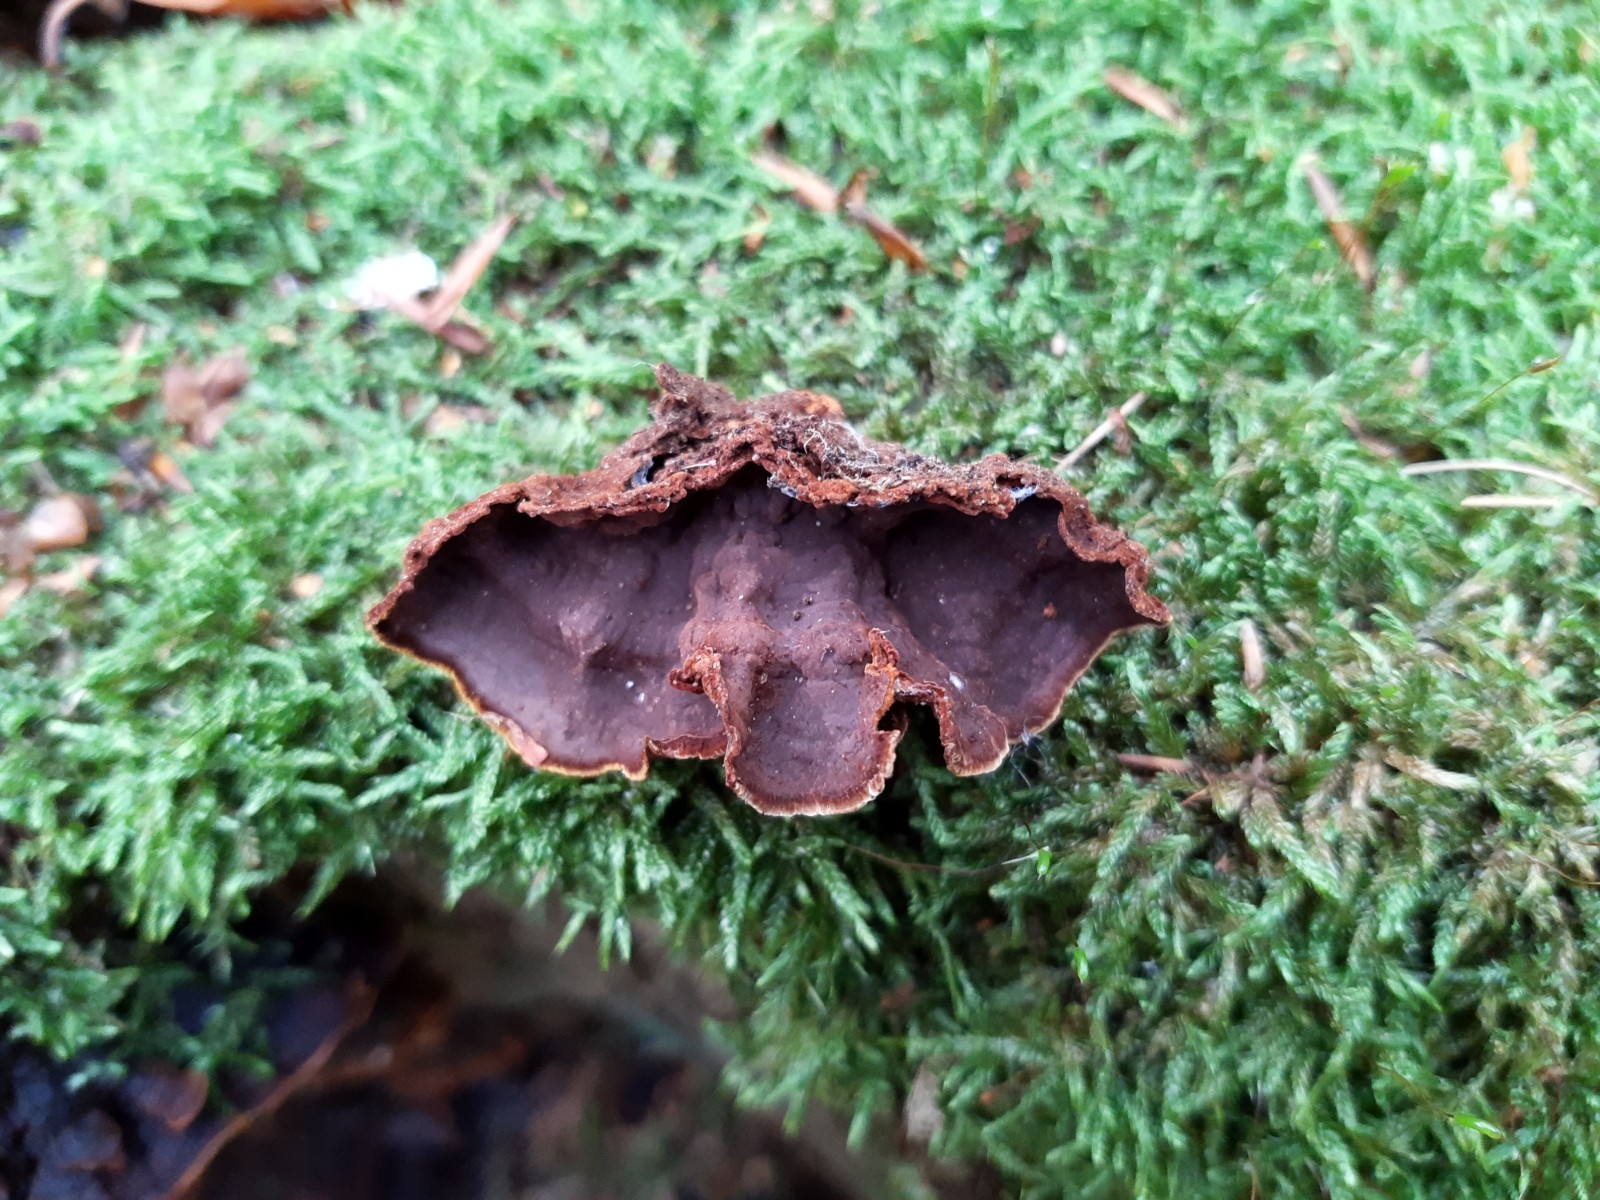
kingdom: Fungi
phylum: Basidiomycota
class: Agaricomycetes
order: Hymenochaetales
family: Hymenochaetaceae
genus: Hymenochaete
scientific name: Hymenochaete rubiginosa
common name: stiv ruslædersvamp
